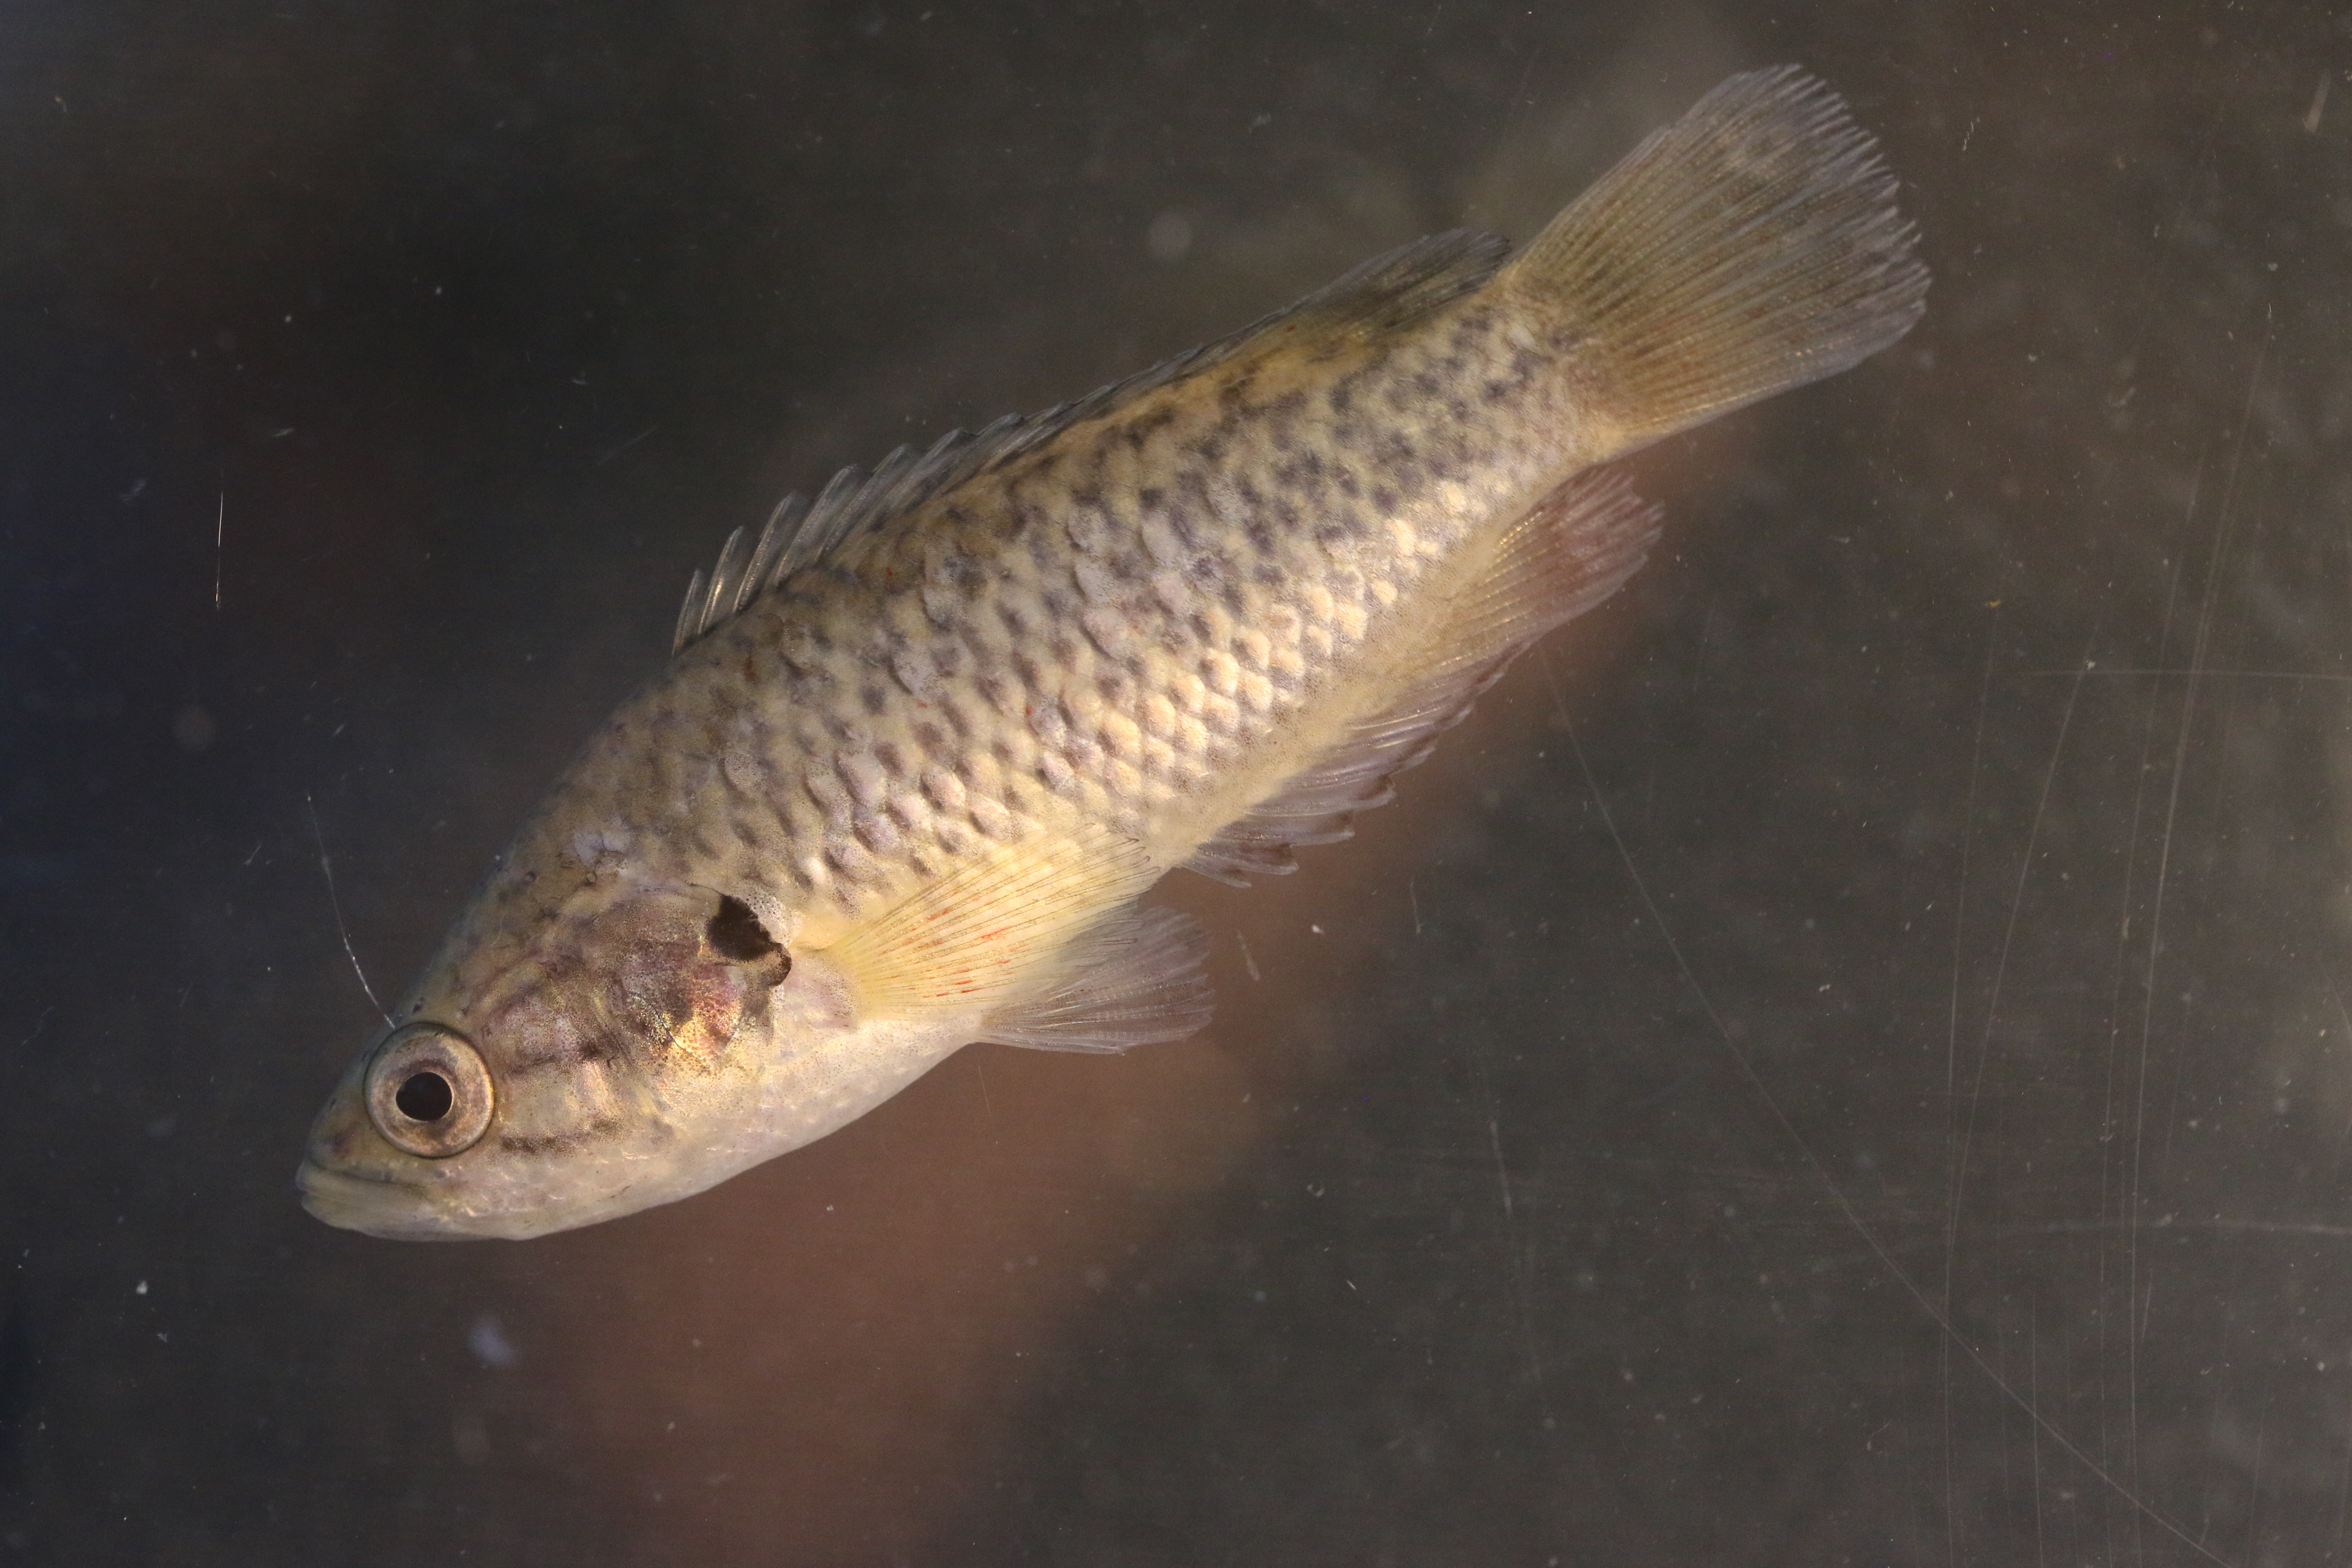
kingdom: Animalia
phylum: Chordata
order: Perciformes
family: Anabantidae
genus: Sandelia
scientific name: Sandelia capensis
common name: Cape kurper
